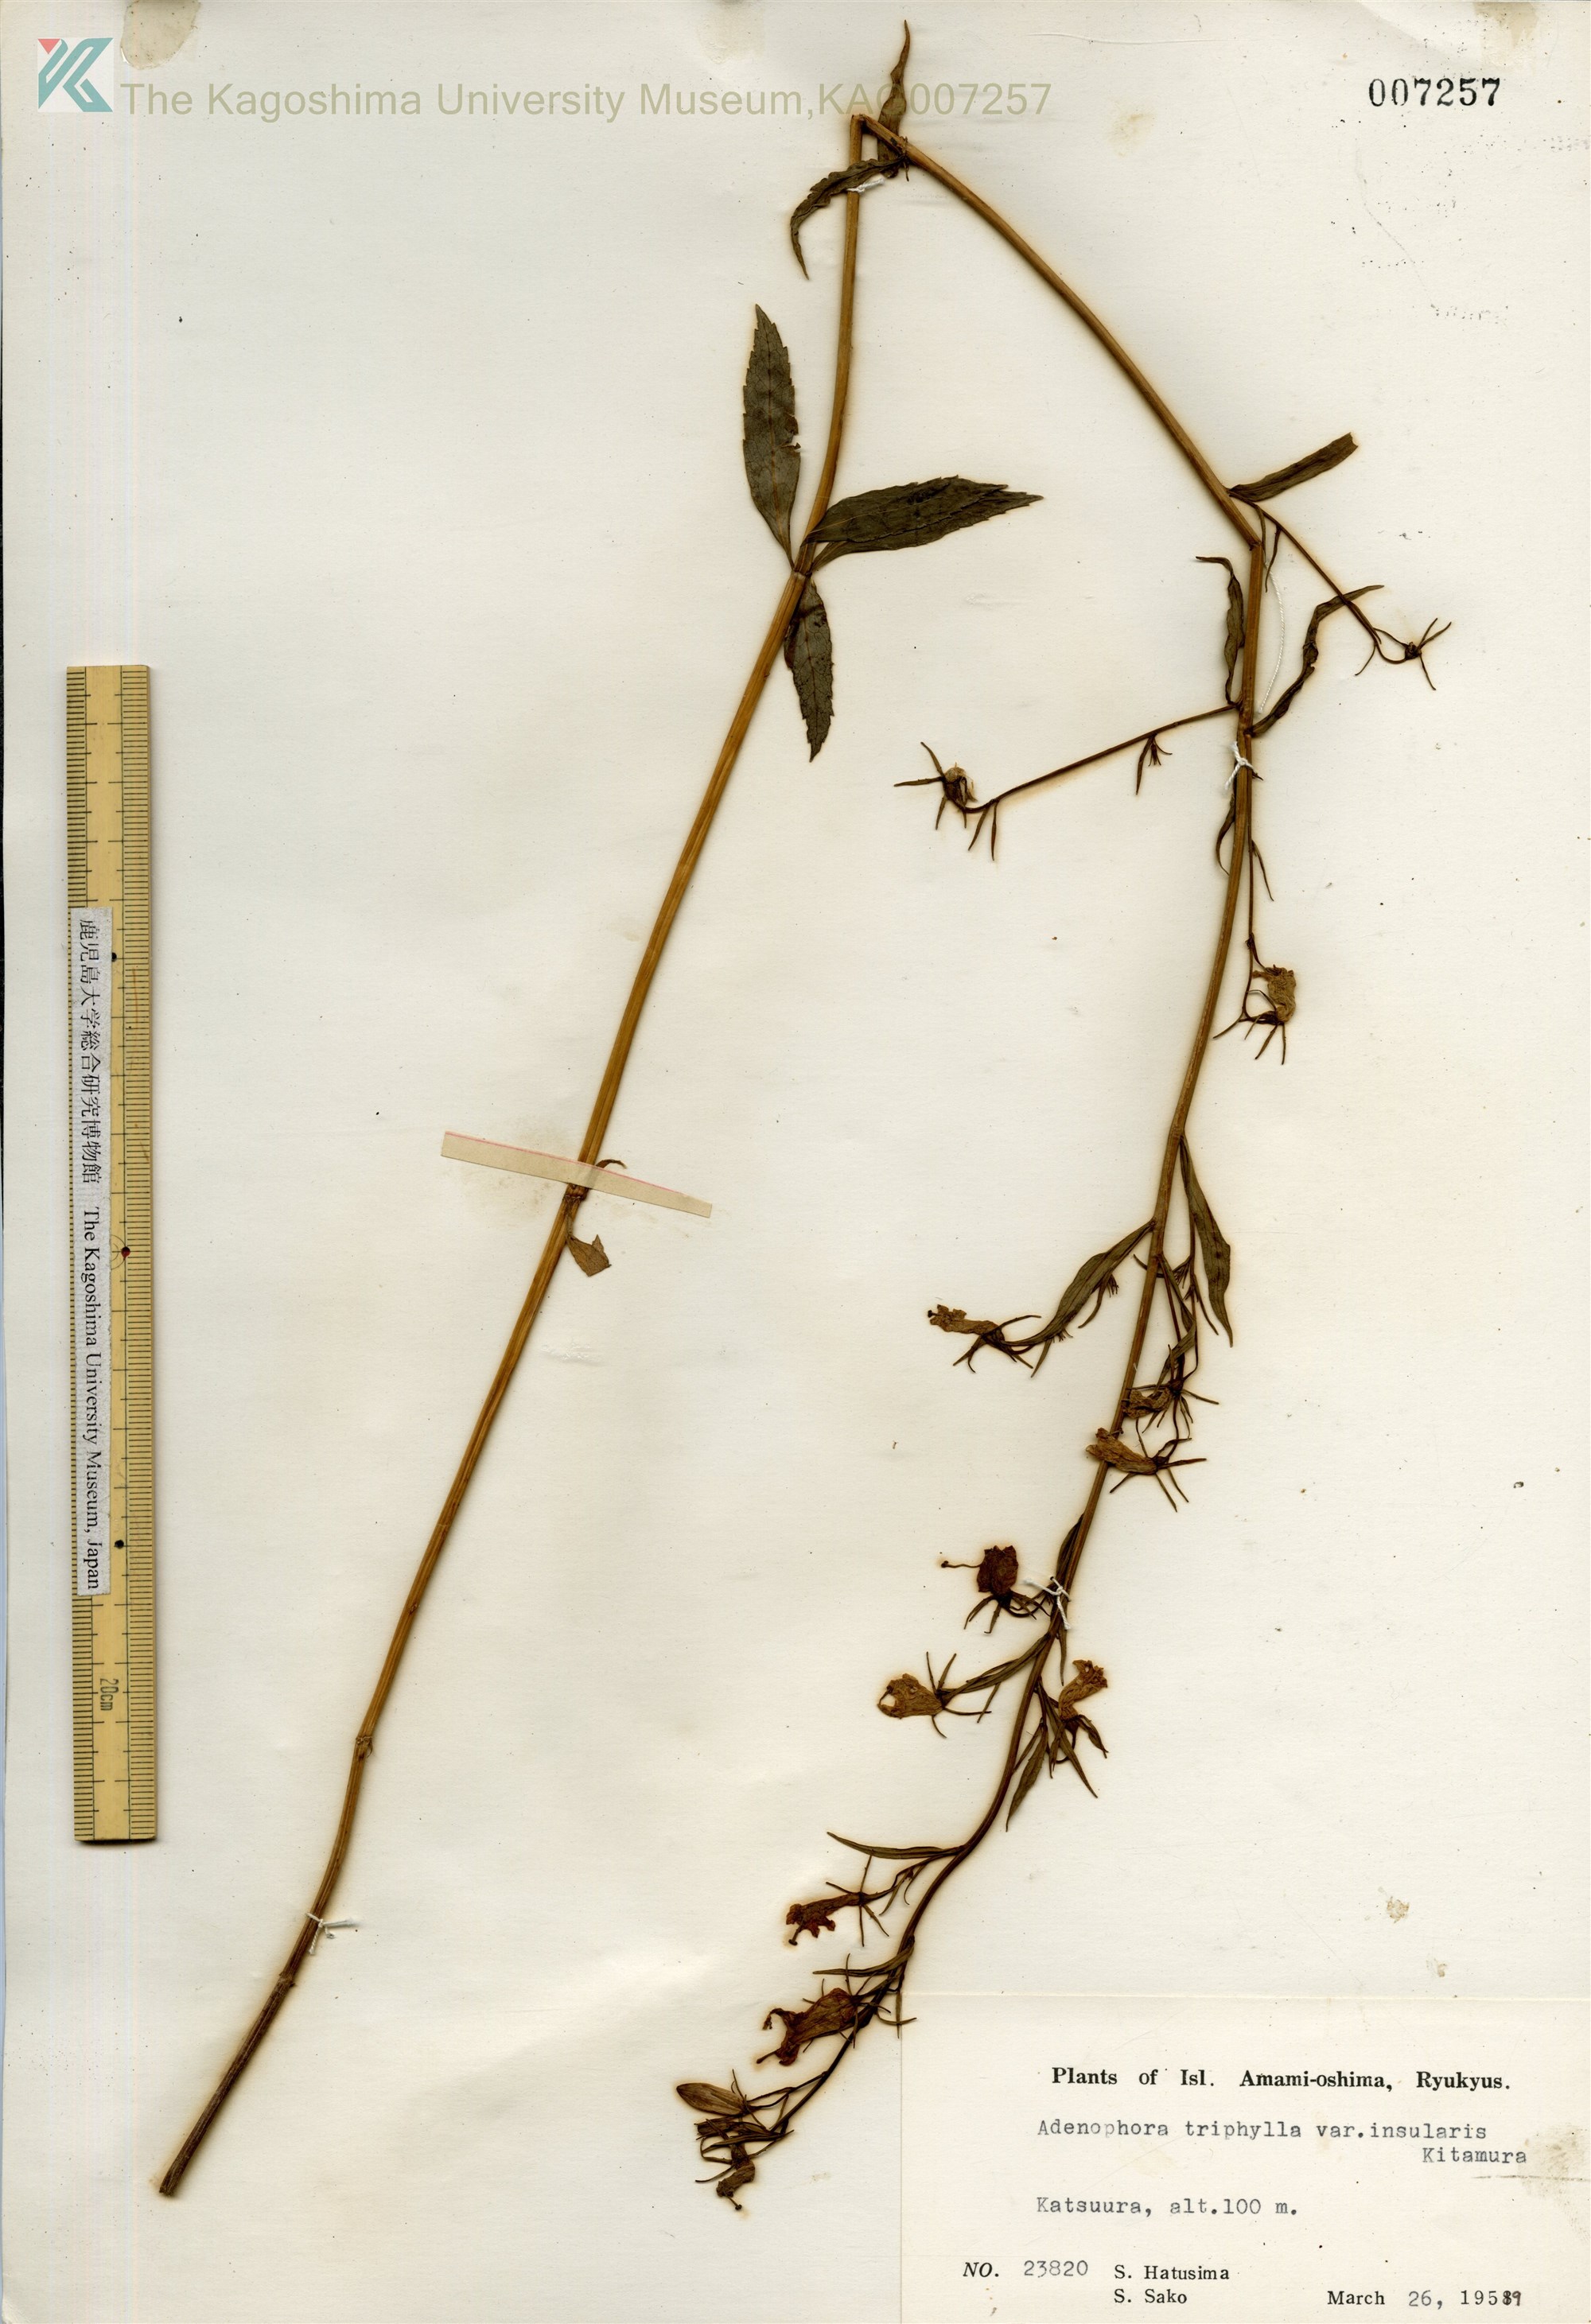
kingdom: Plantae
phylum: Tracheophyta
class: Magnoliopsida
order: Asterales
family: Campanulaceae
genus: Adenophora
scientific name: Adenophora tashiroi
